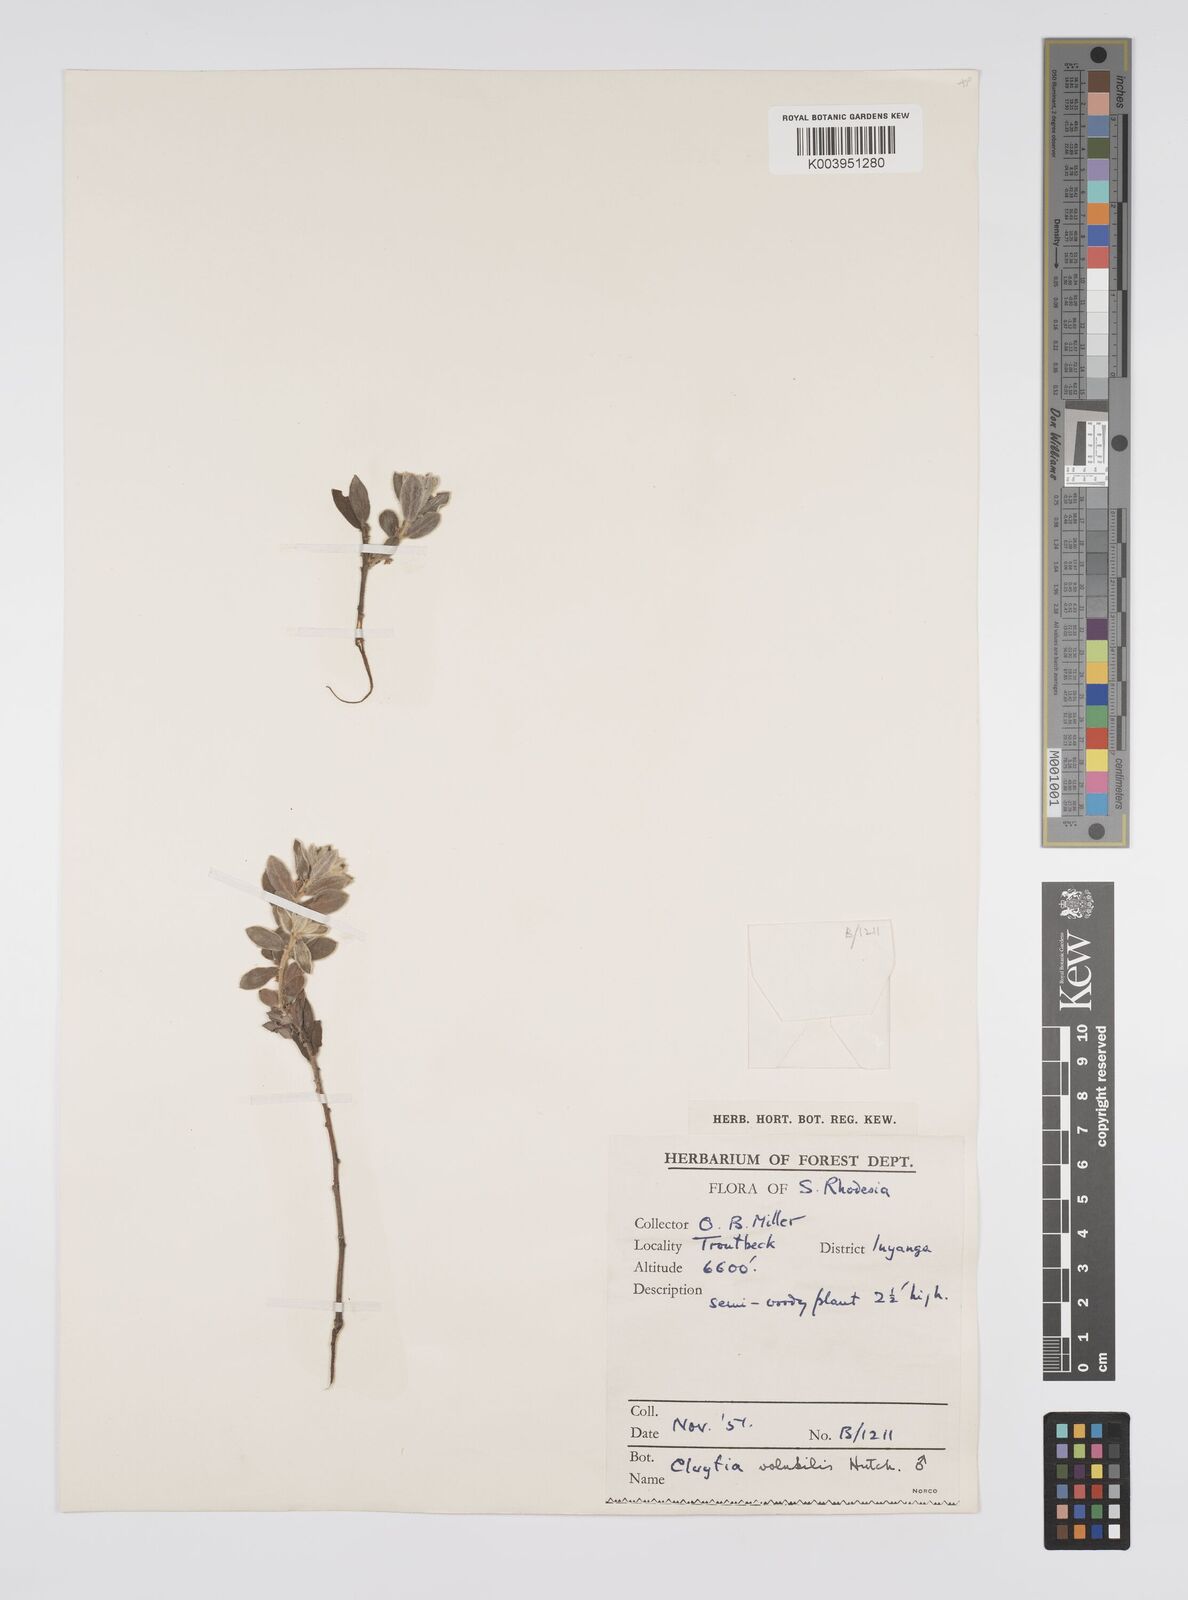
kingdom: Plantae
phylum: Tracheophyta
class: Magnoliopsida
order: Malpighiales
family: Peraceae
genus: Clutia
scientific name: Clutia
